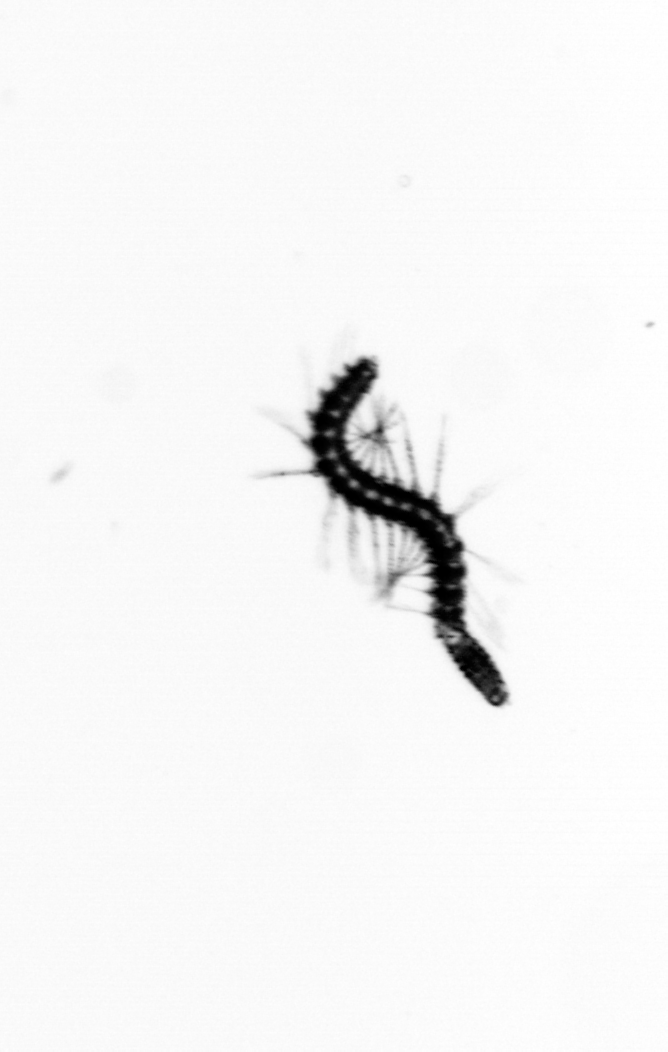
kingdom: Animalia
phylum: Annelida
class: Polychaeta
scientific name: Polychaeta
